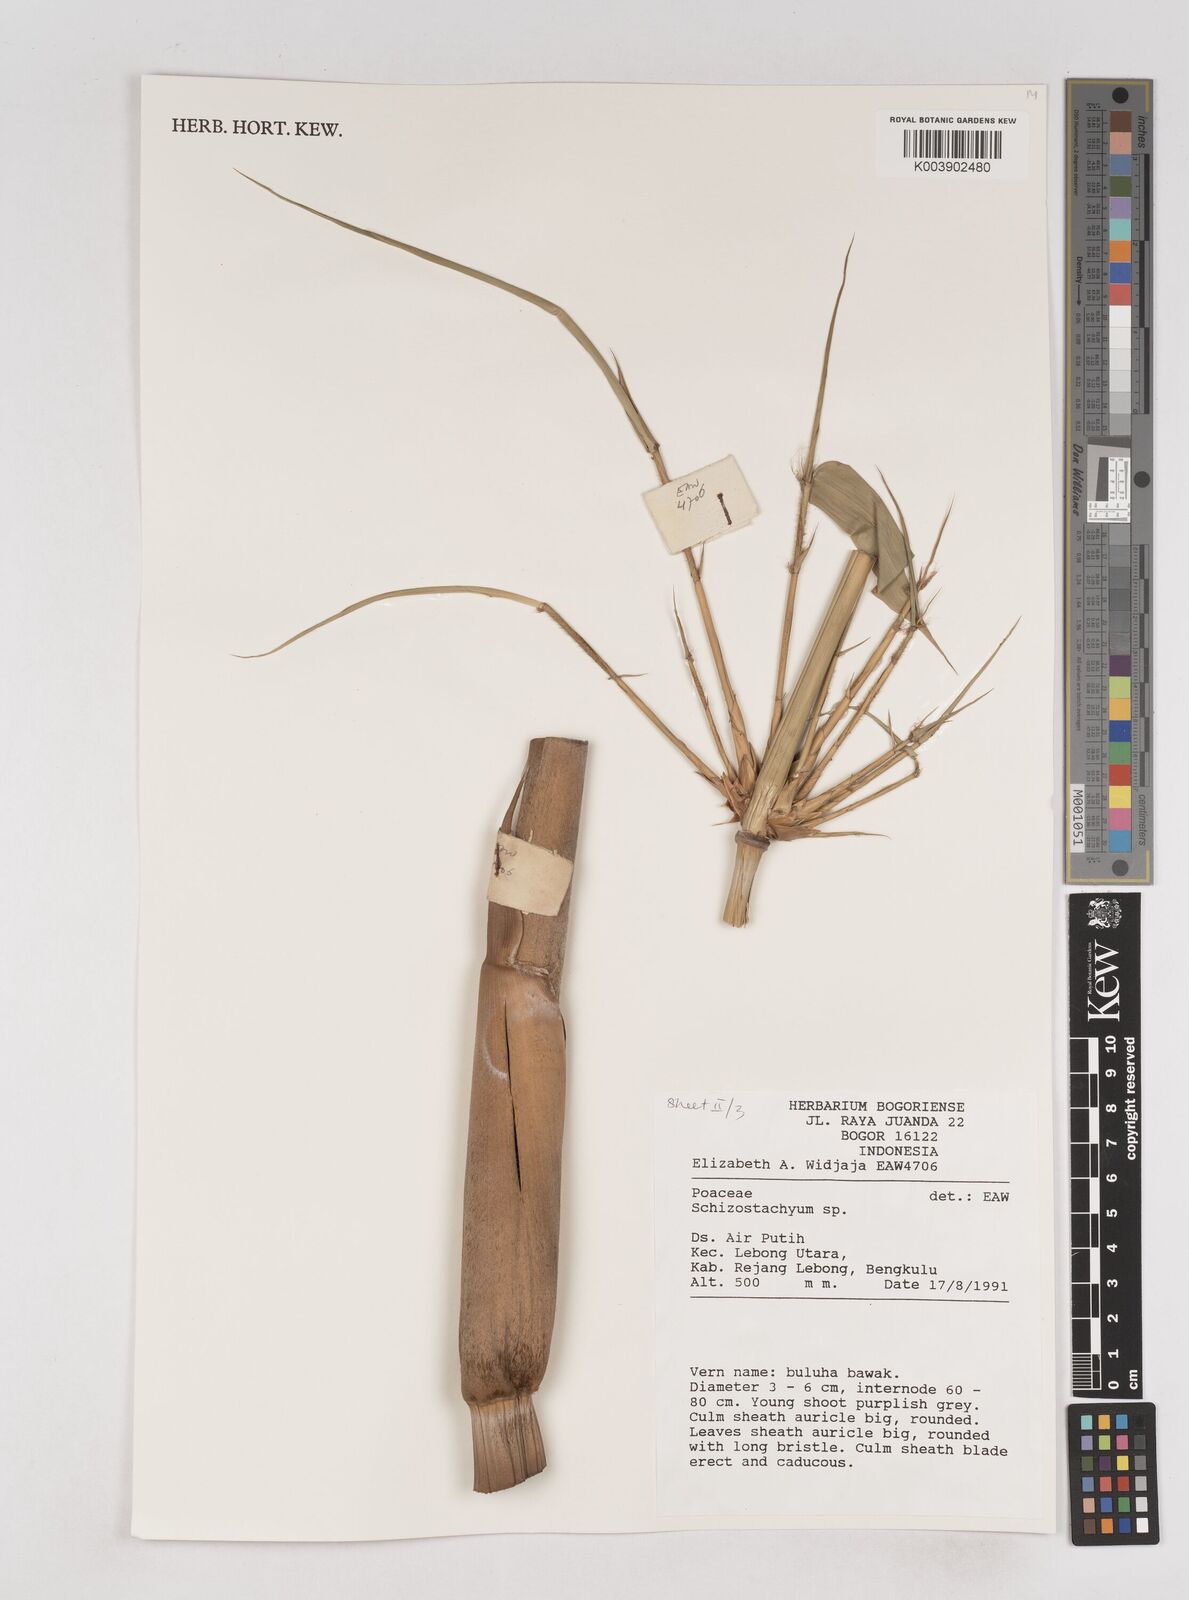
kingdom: Plantae
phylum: Tracheophyta
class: Liliopsida
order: Poales
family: Poaceae
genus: Schizostachyum
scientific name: Schizostachyum
